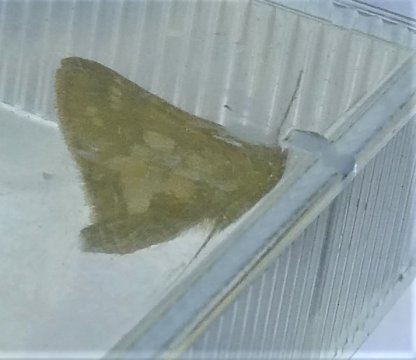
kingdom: Animalia
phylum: Arthropoda
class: Insecta
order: Lepidoptera
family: Hesperiidae
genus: Polites
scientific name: Polites coras
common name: Peck's Skipper
